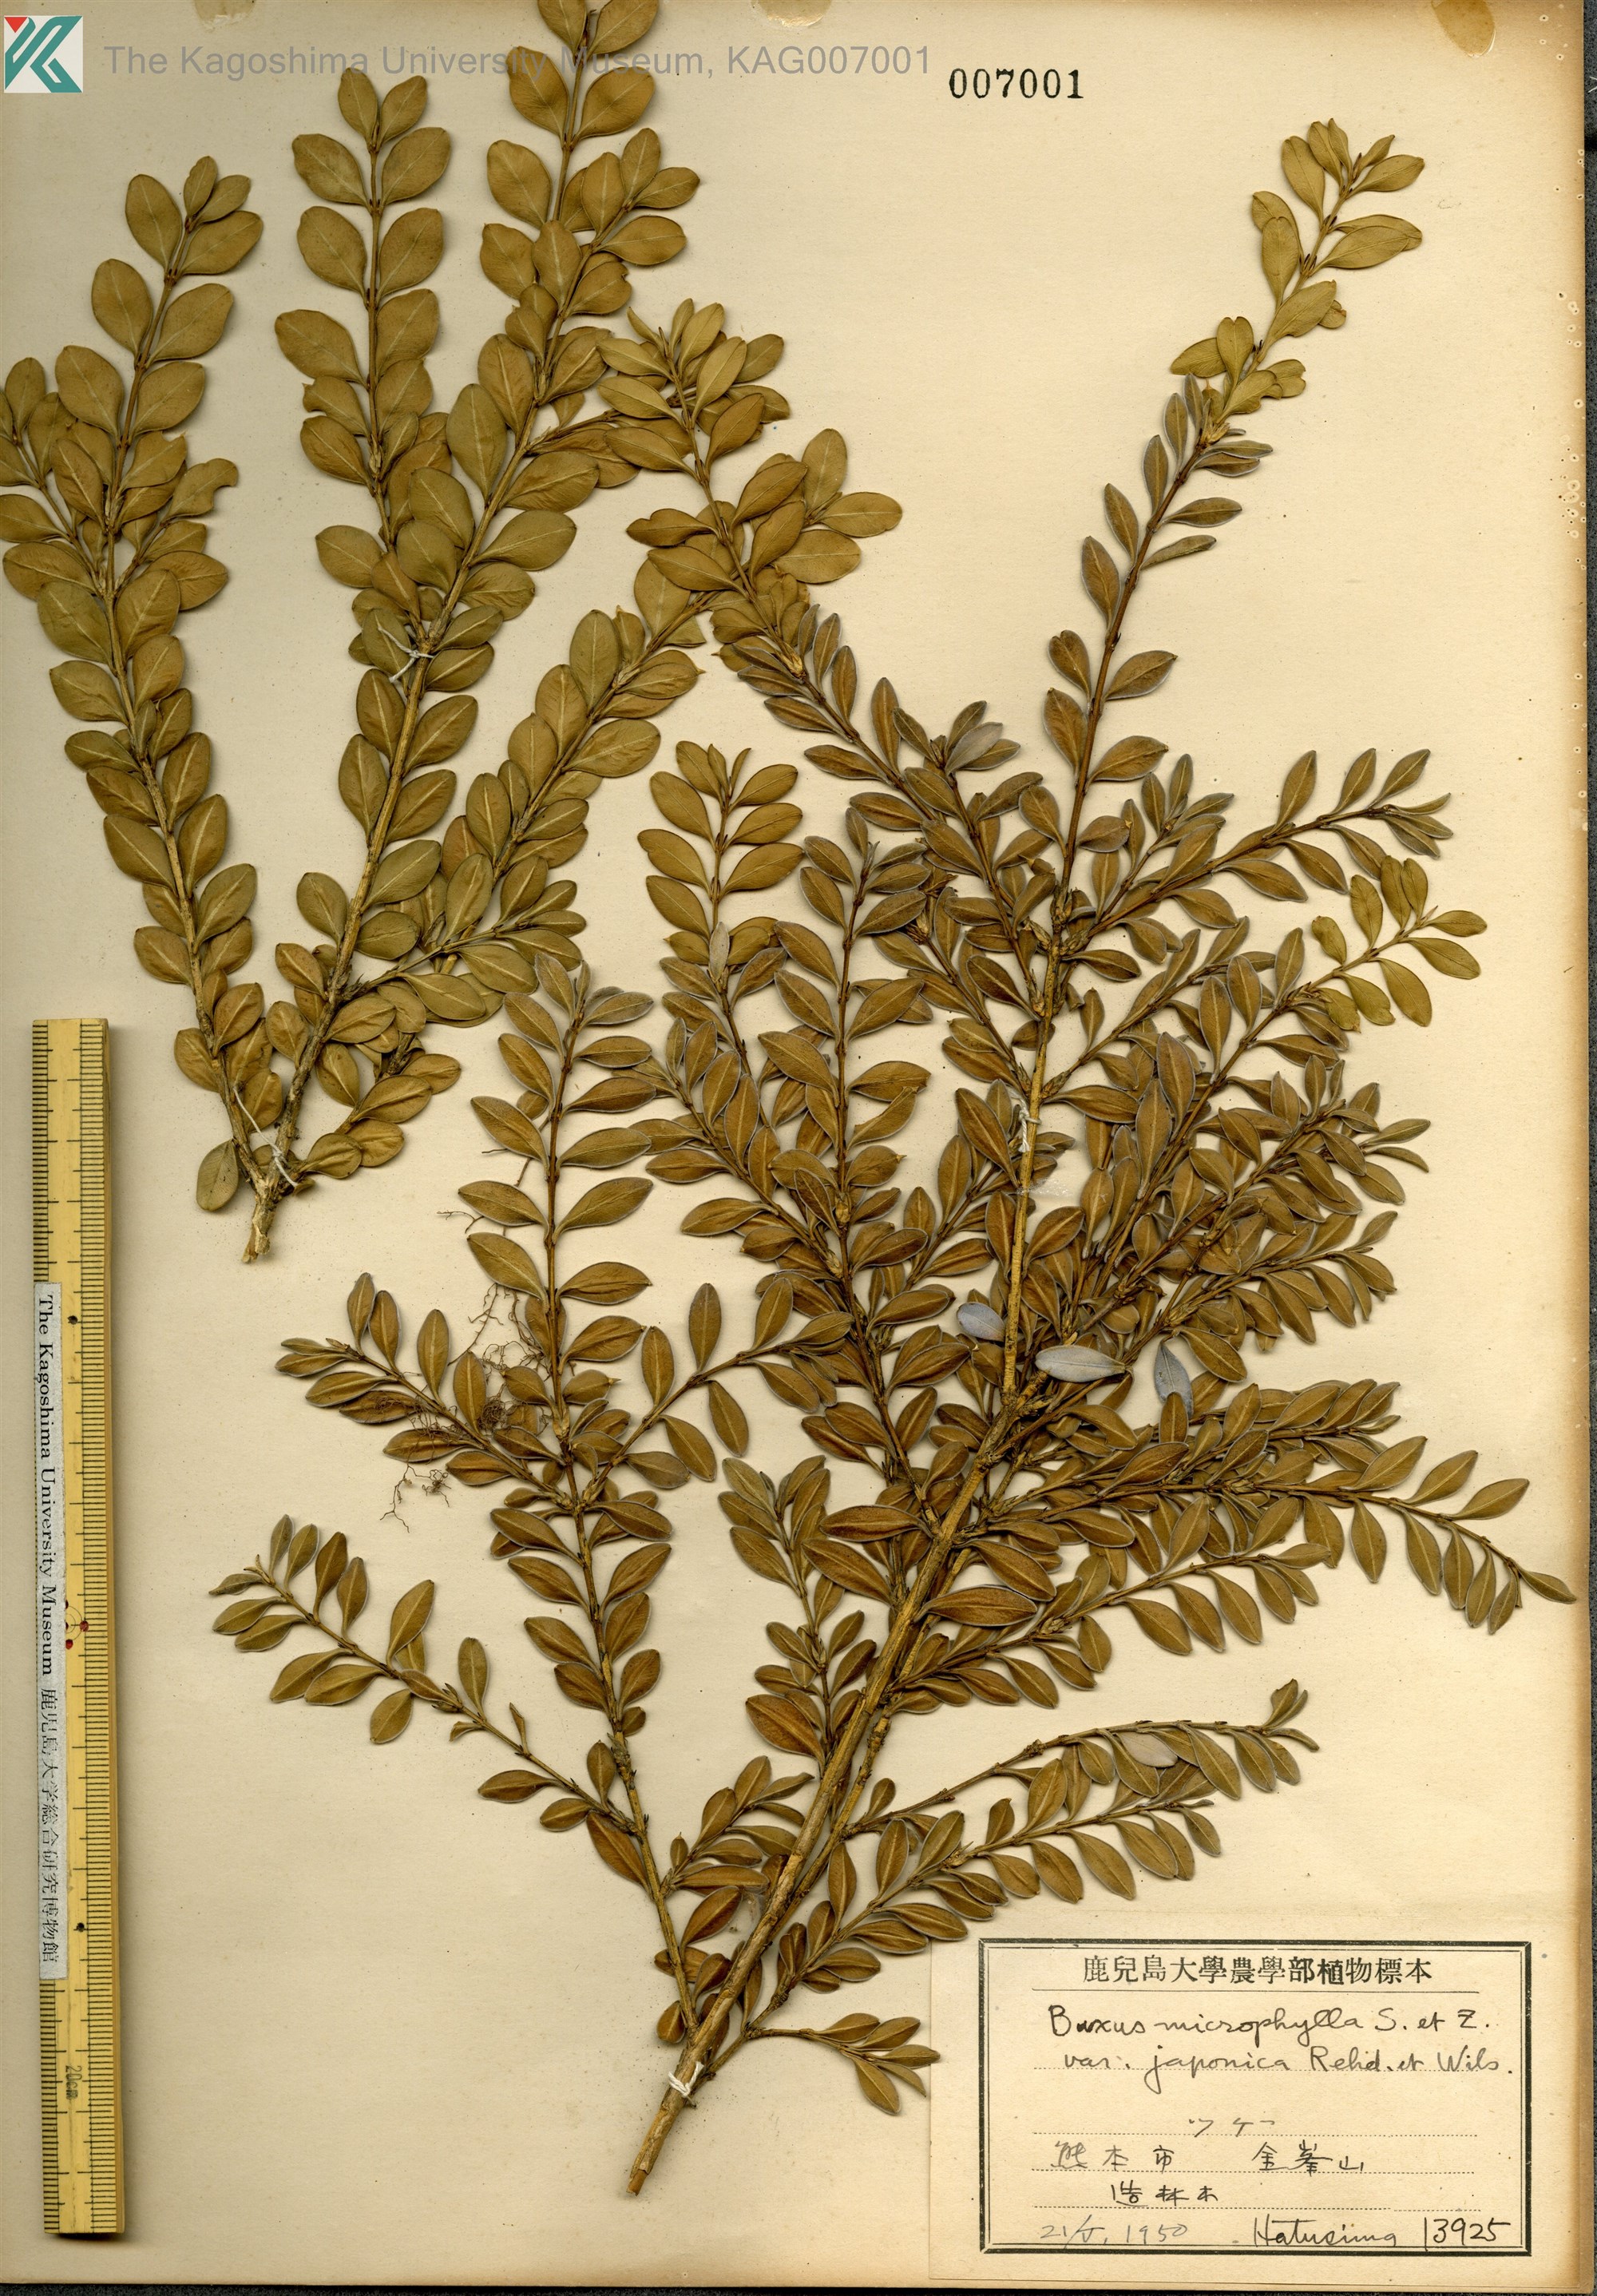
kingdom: Plantae
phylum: Tracheophyta
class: Magnoliopsida
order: Buxales
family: Buxaceae
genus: Buxus
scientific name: Buxus microphylla
